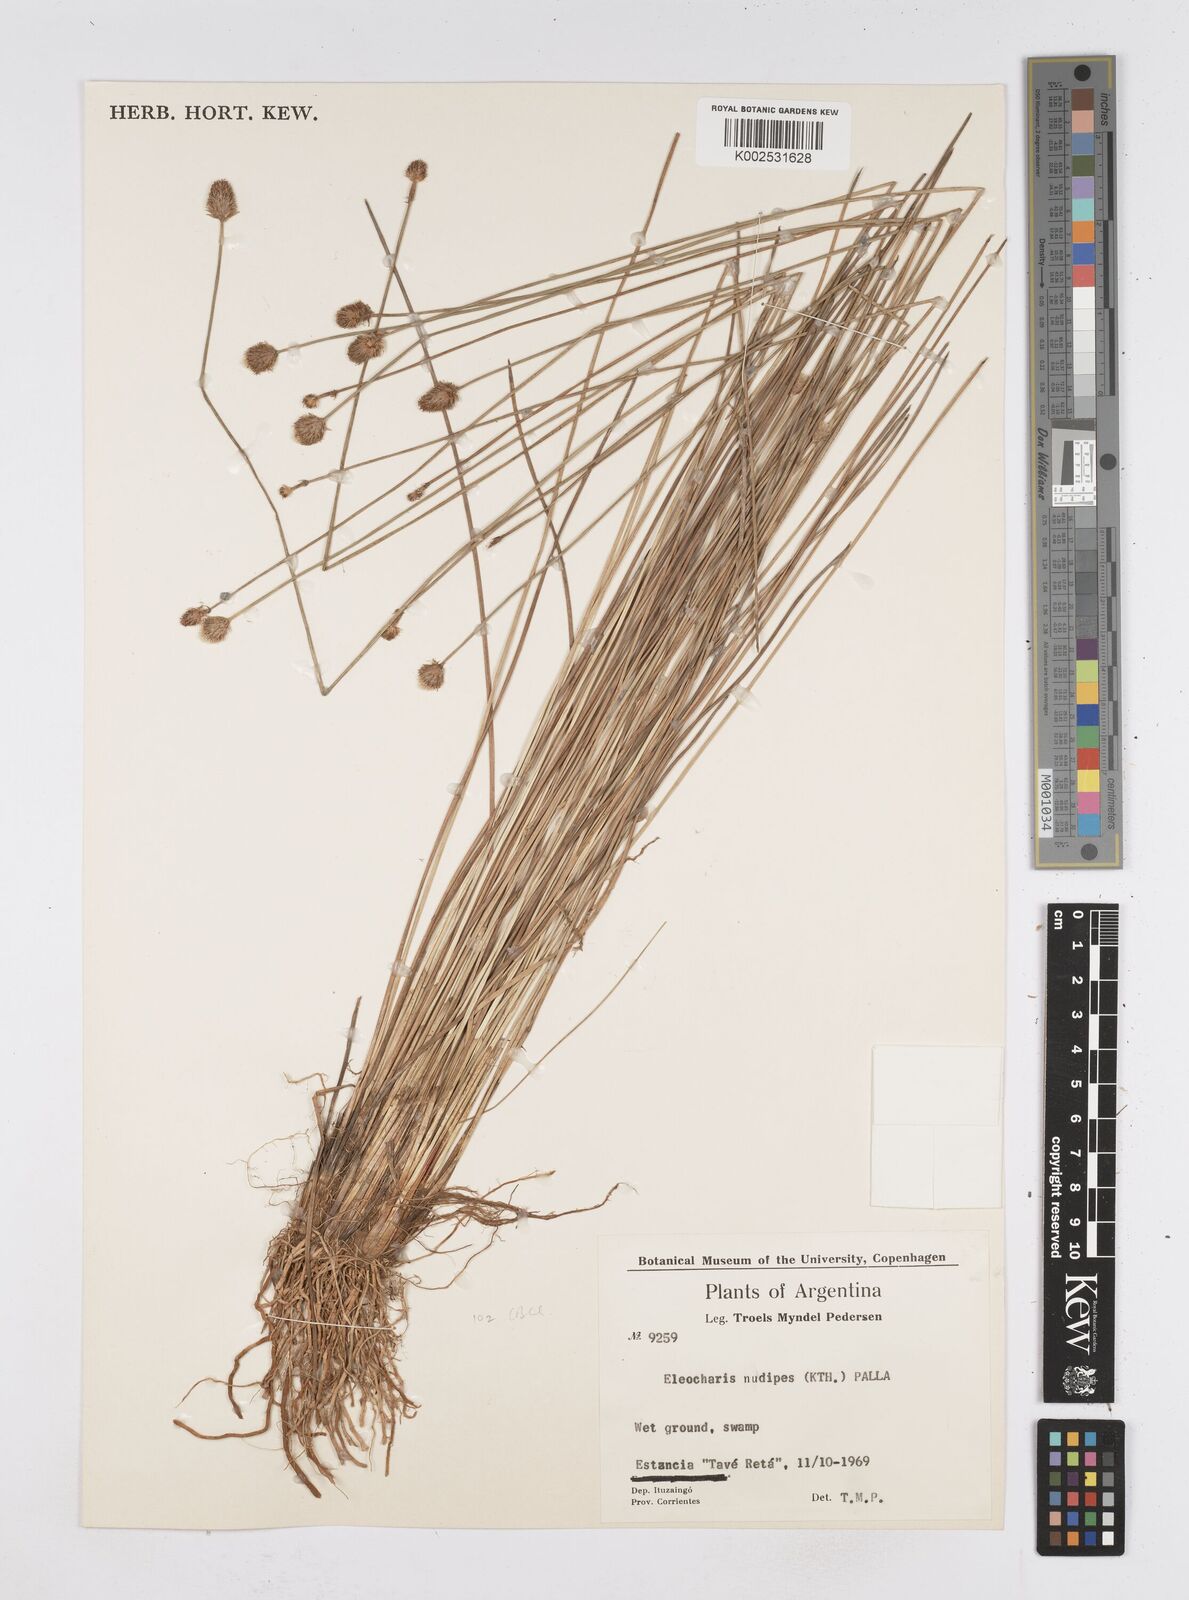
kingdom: Plantae
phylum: Tracheophyta
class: Liliopsida
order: Poales
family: Cyperaceae
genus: Eleocharis
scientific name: Eleocharis nudipes
